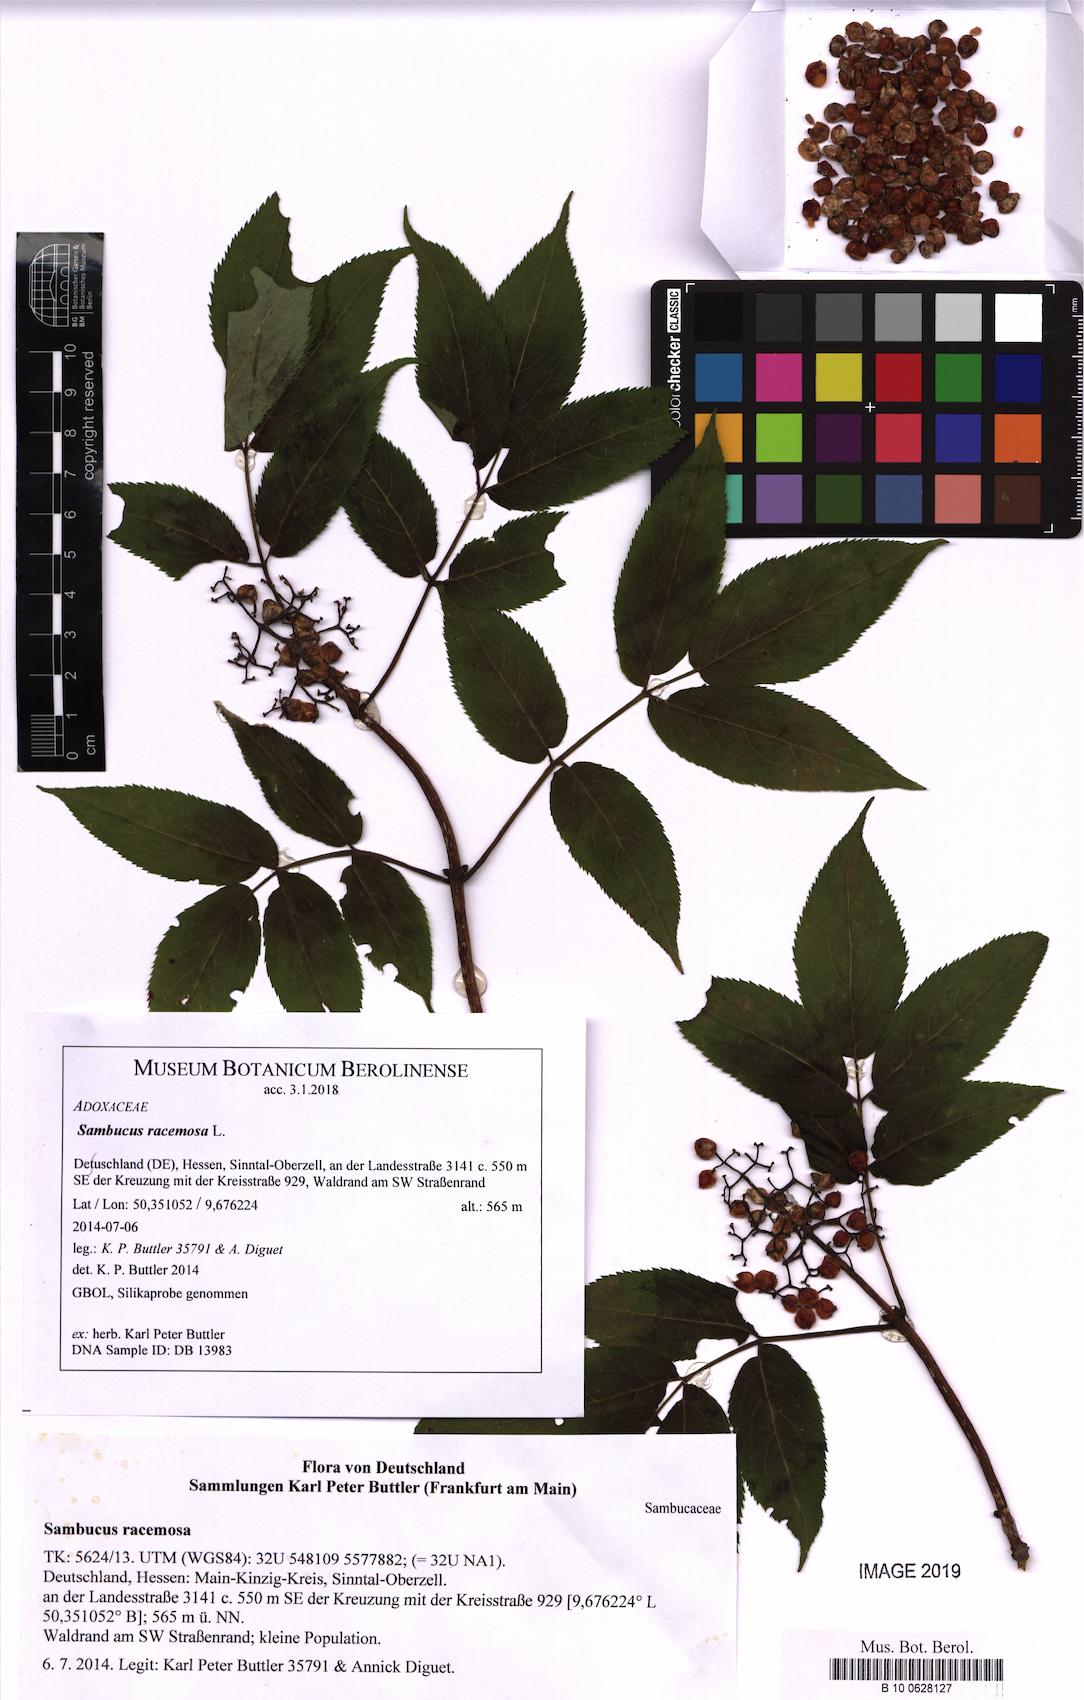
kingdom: Plantae
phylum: Tracheophyta
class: Magnoliopsida
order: Dipsacales
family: Viburnaceae
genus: Sambucus
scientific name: Sambucus racemosa
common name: Red-berried elder
